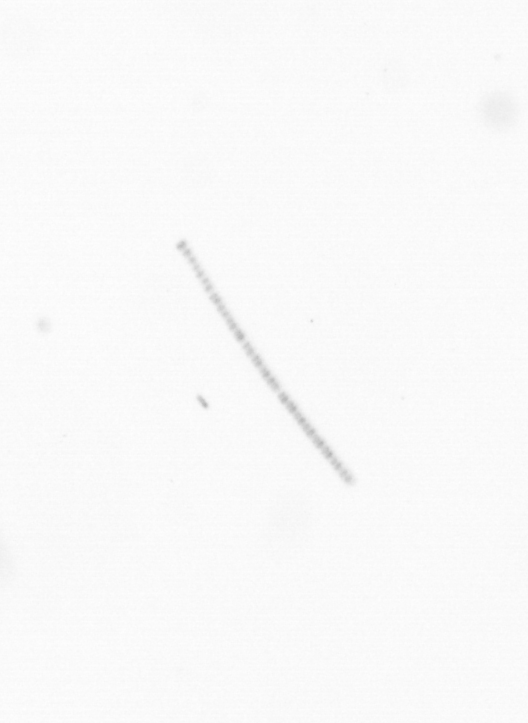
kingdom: Chromista
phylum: Ochrophyta
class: Bacillariophyceae
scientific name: Bacillariophyceae
